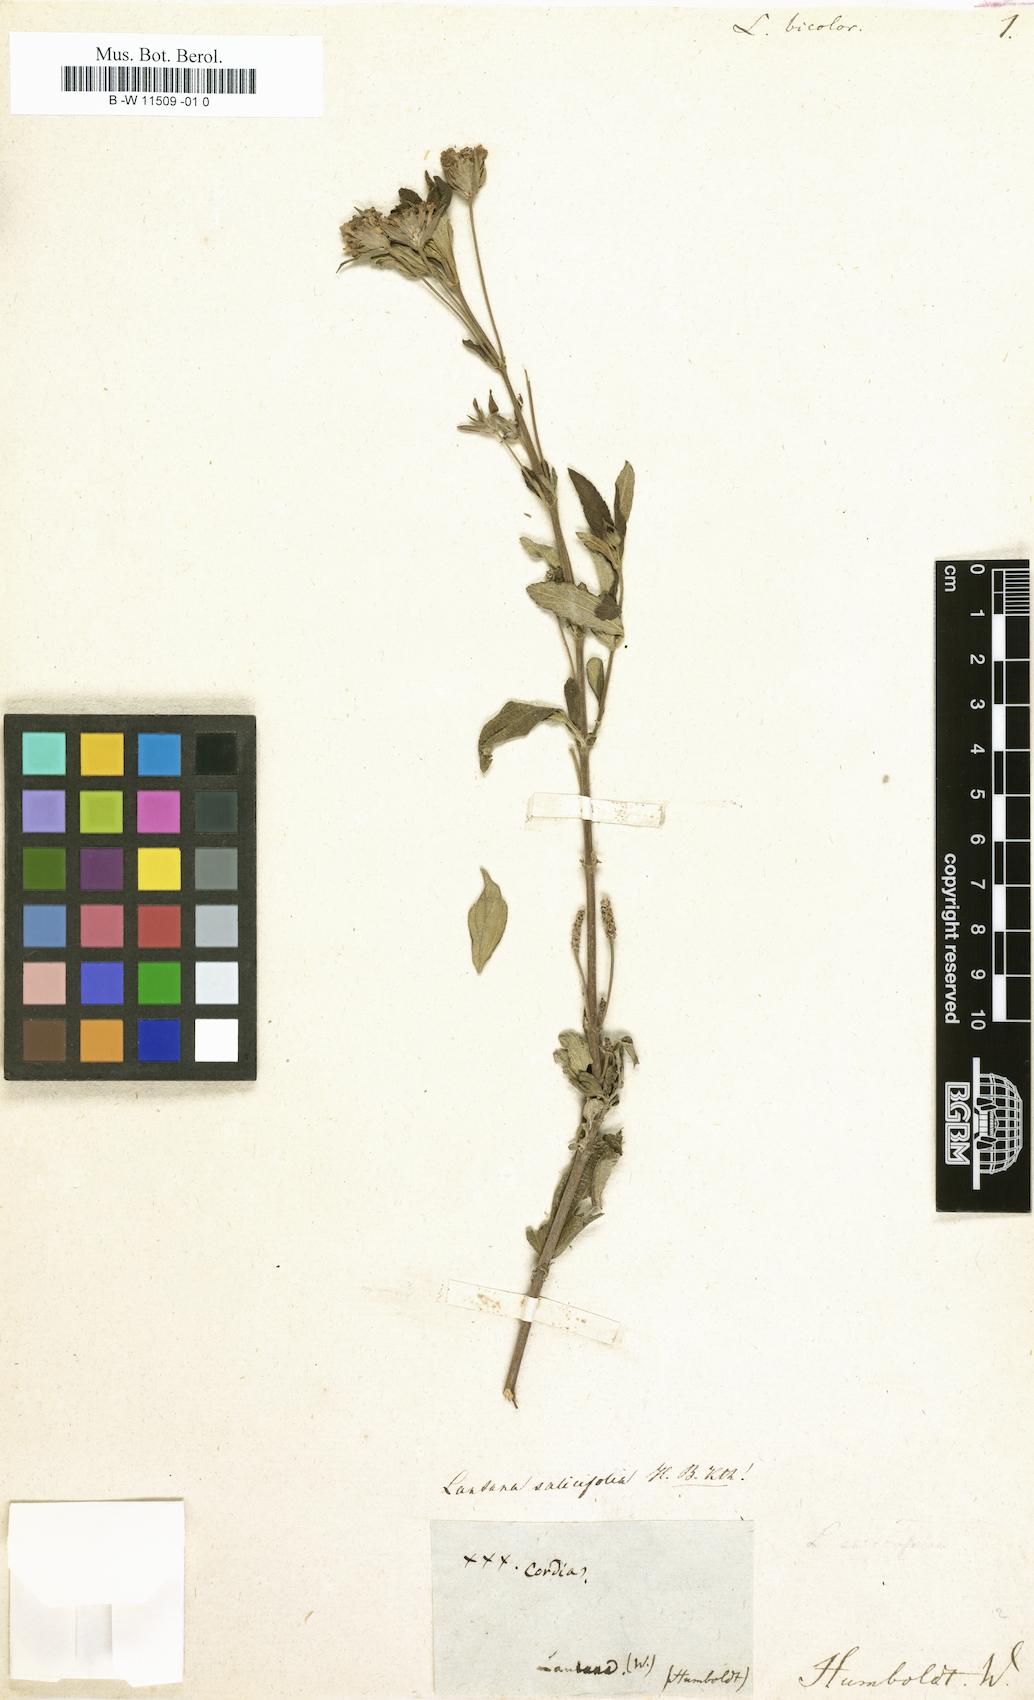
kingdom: Plantae
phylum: Tracheophyta
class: Magnoliopsida
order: Lamiales
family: Verbenaceae
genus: Lantana
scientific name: Lantana
